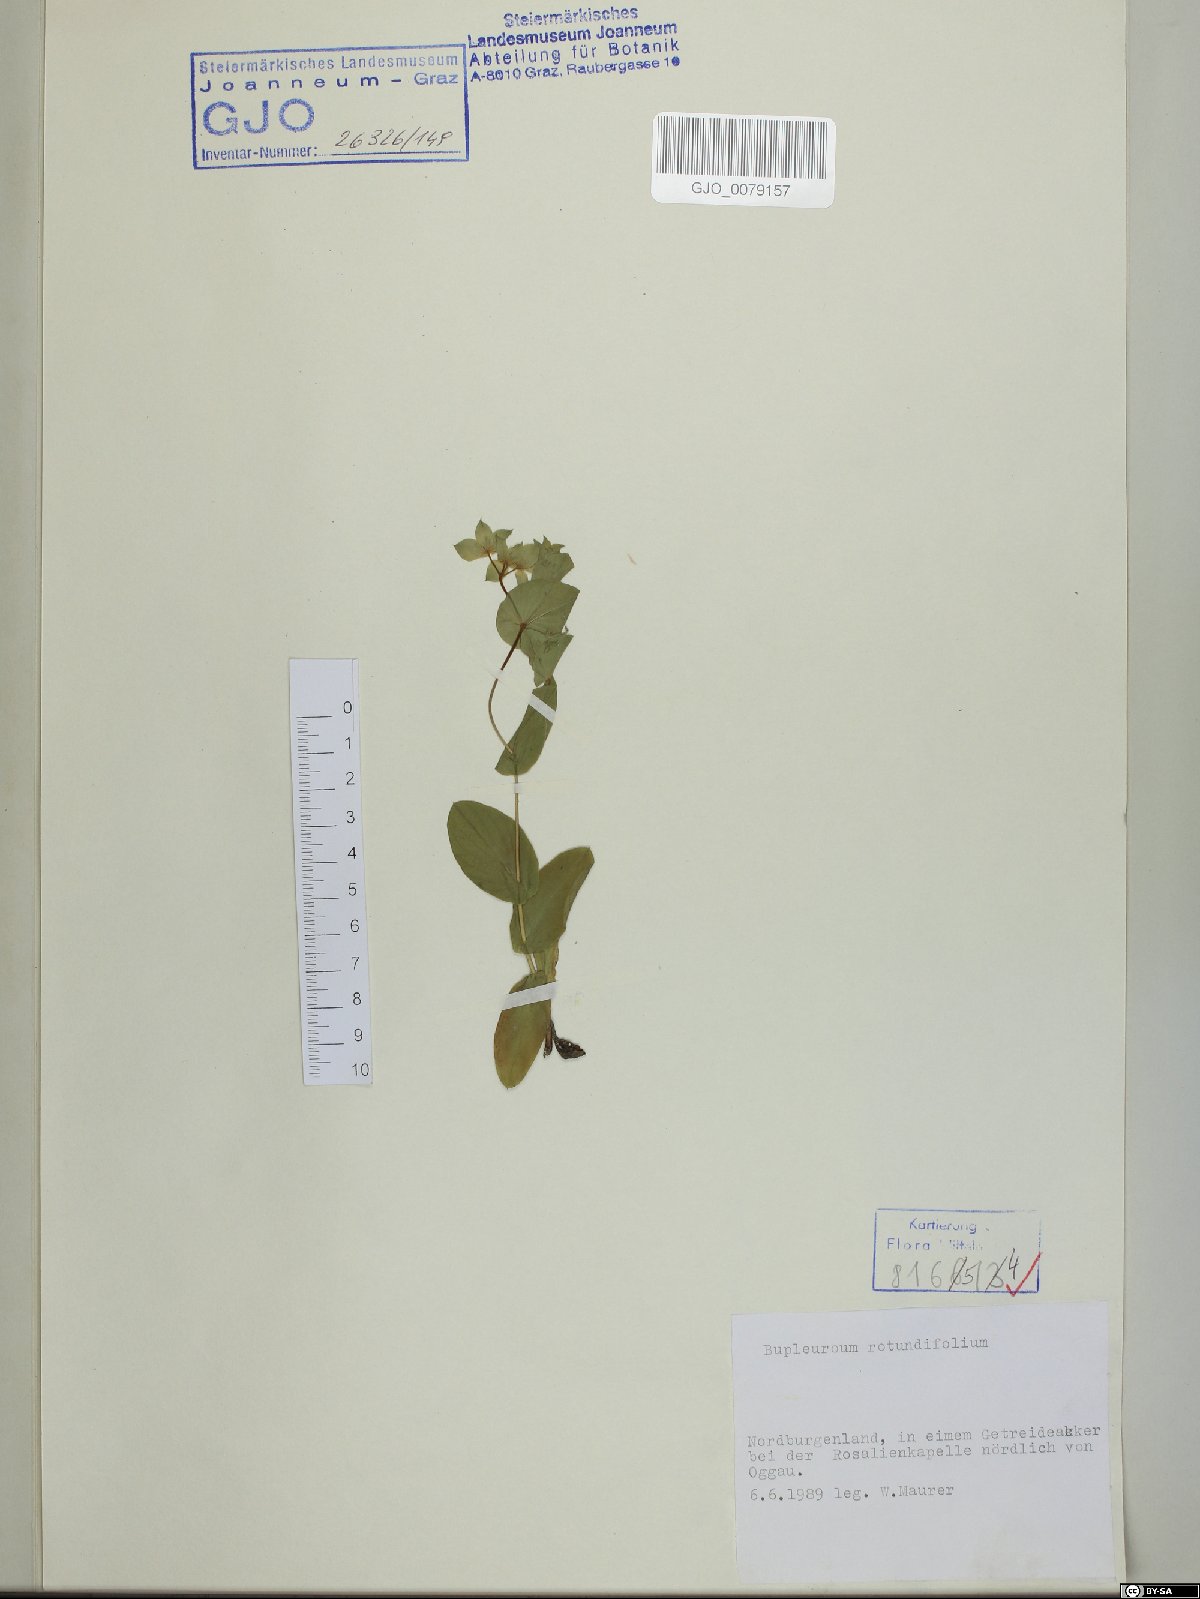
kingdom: Plantae
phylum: Tracheophyta
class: Magnoliopsida
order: Apiales
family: Apiaceae
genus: Bupleurum
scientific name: Bupleurum rotundifolium
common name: Thorow-wax
